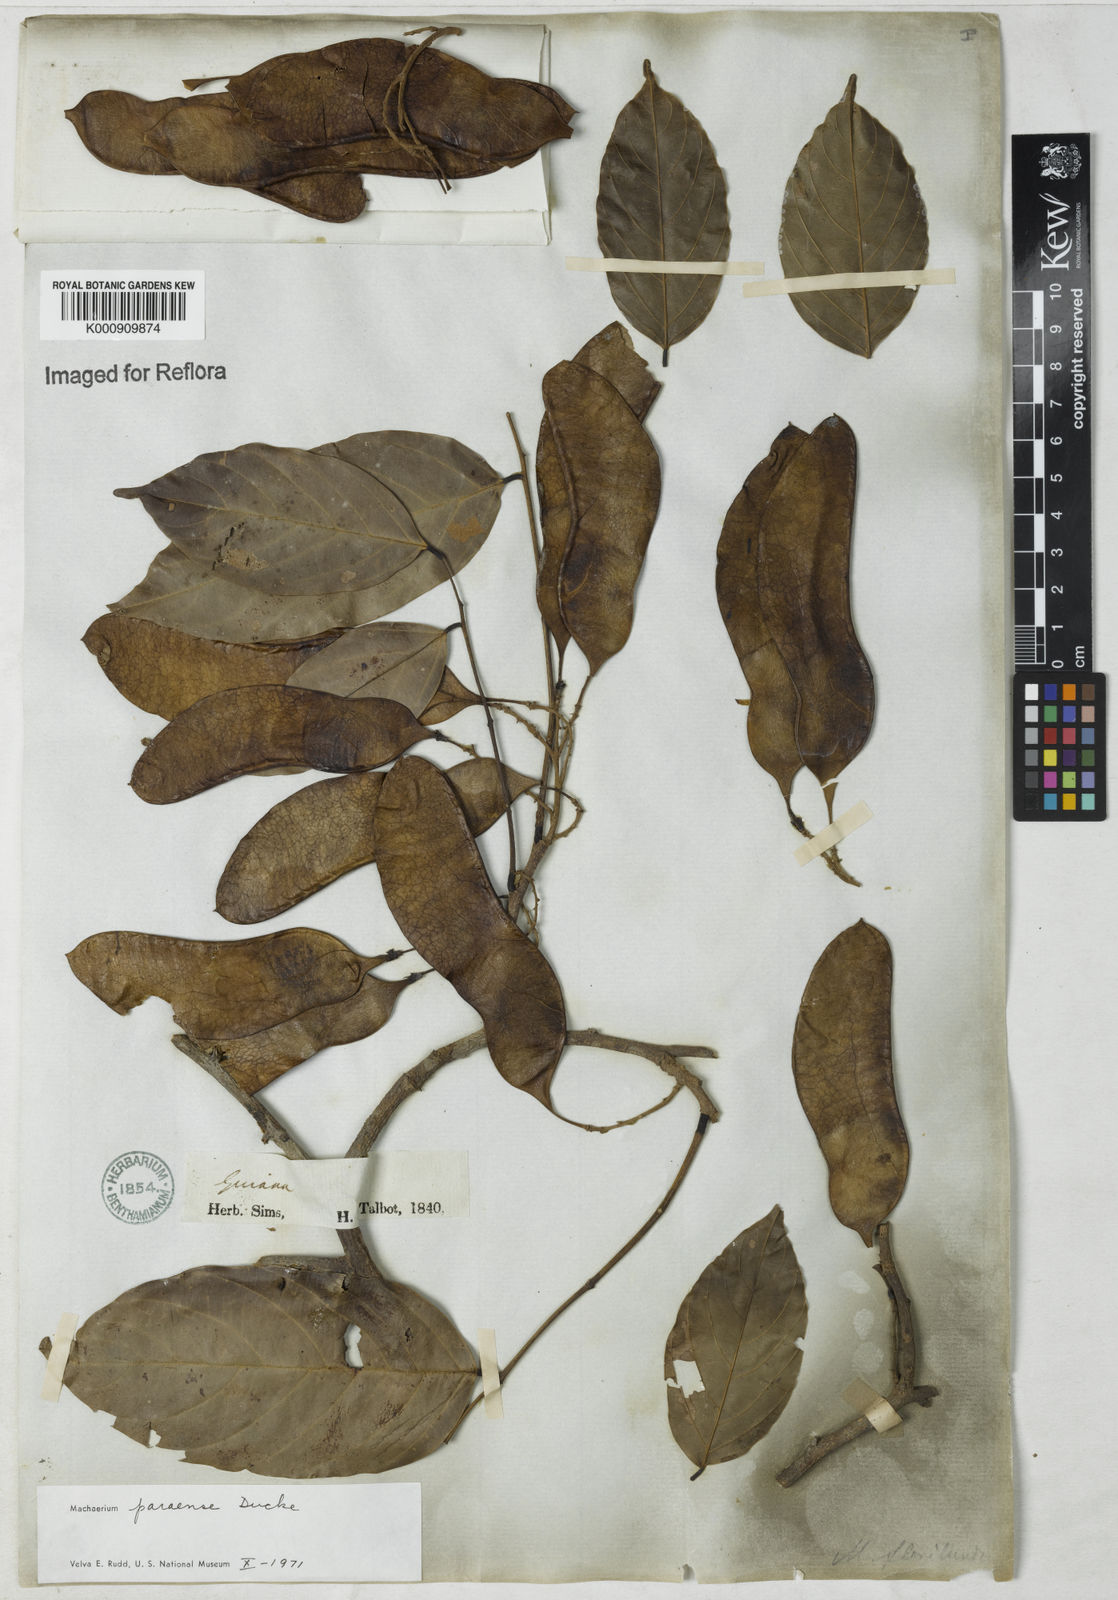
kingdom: Plantae
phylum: Tracheophyta
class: Magnoliopsida
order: Fabales
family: Fabaceae
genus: Machaerium
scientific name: Machaerium paraense
